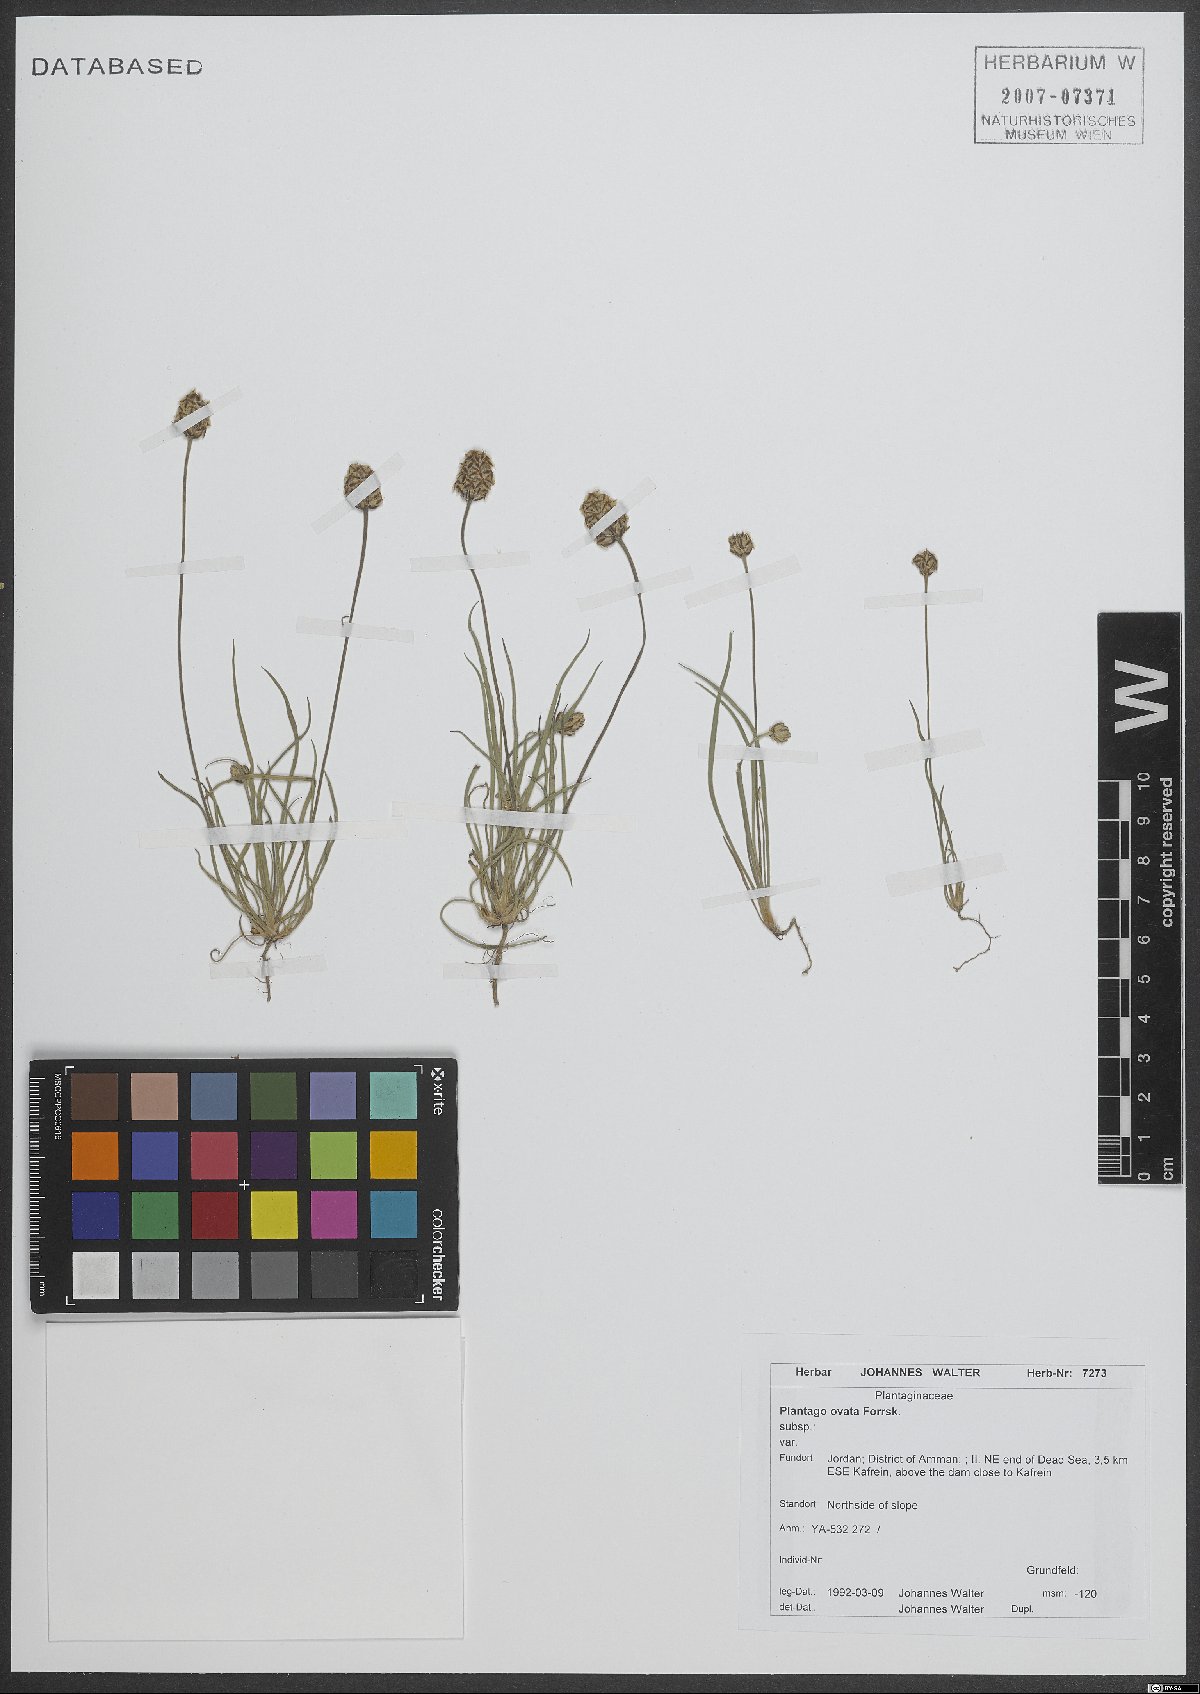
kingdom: Plantae
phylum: Tracheophyta
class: Magnoliopsida
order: Lamiales
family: Plantaginaceae
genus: Plantago
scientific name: Plantago ovata
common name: Blond plantain
